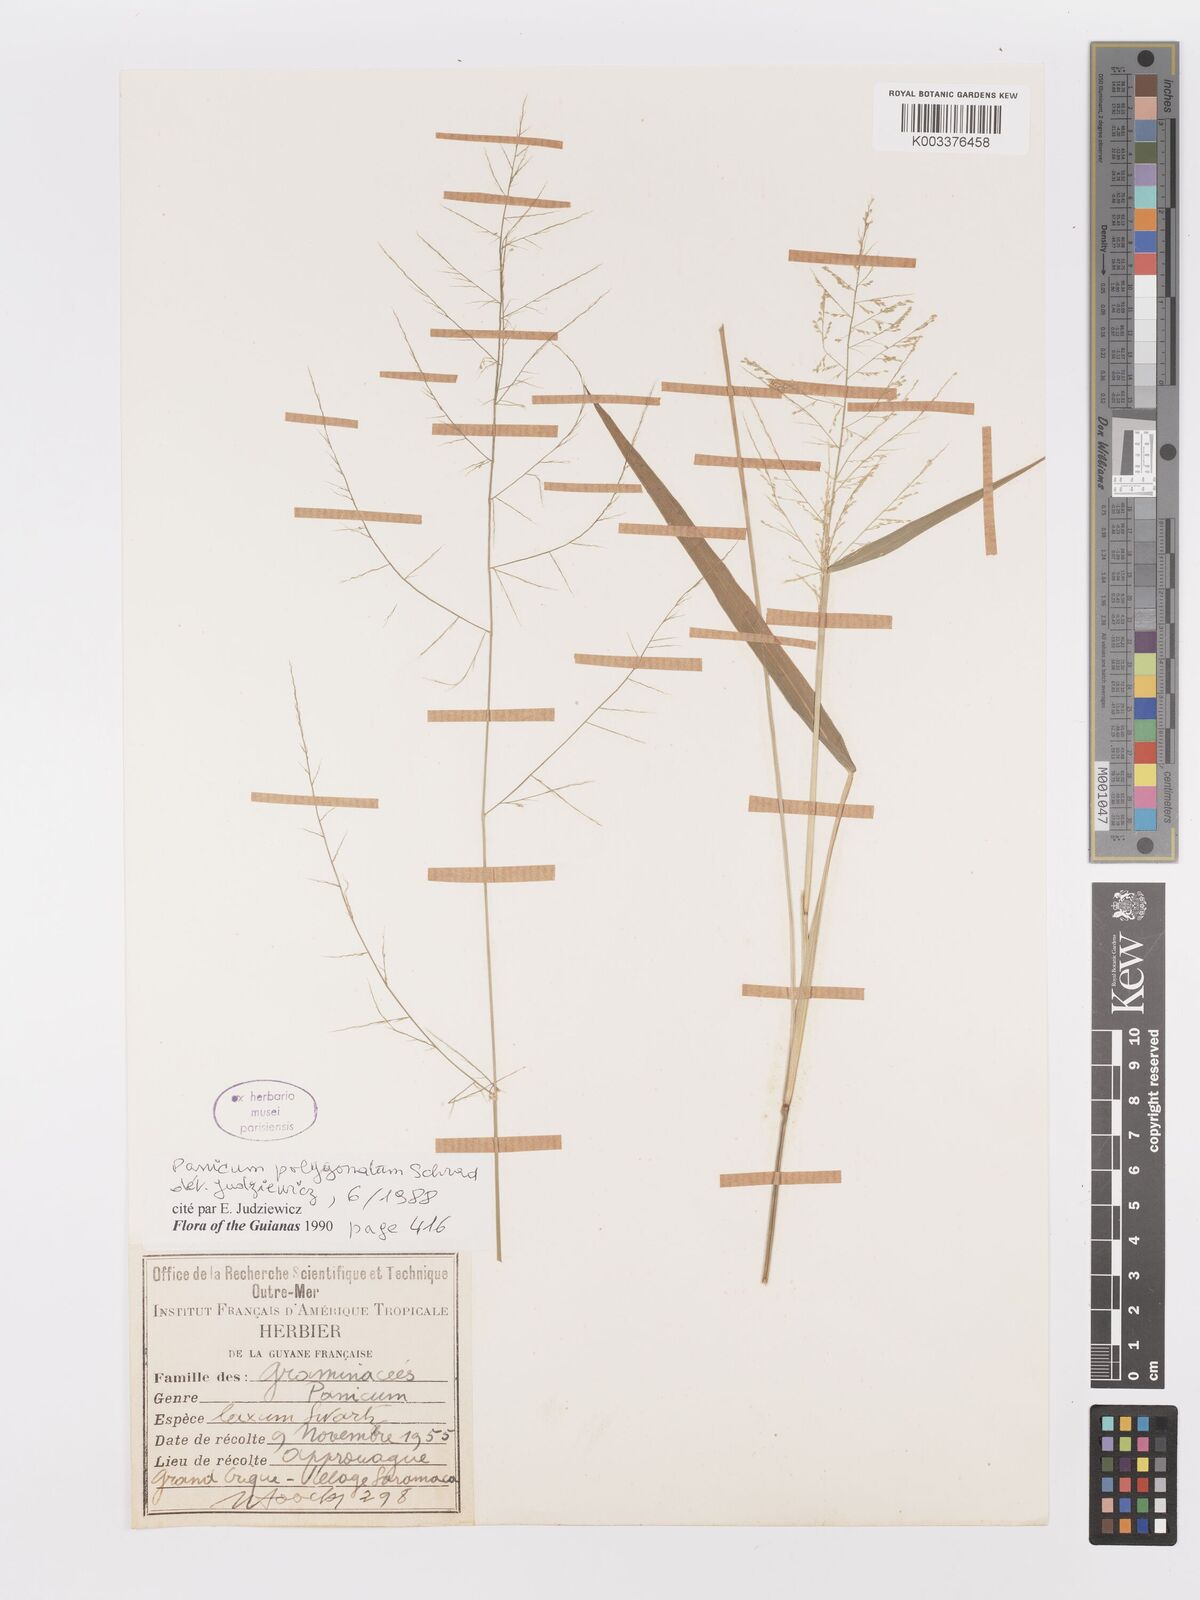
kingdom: Plantae
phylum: Tracheophyta
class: Liliopsida
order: Poales
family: Poaceae
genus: Rugoloa
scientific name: Rugoloa polygonata
